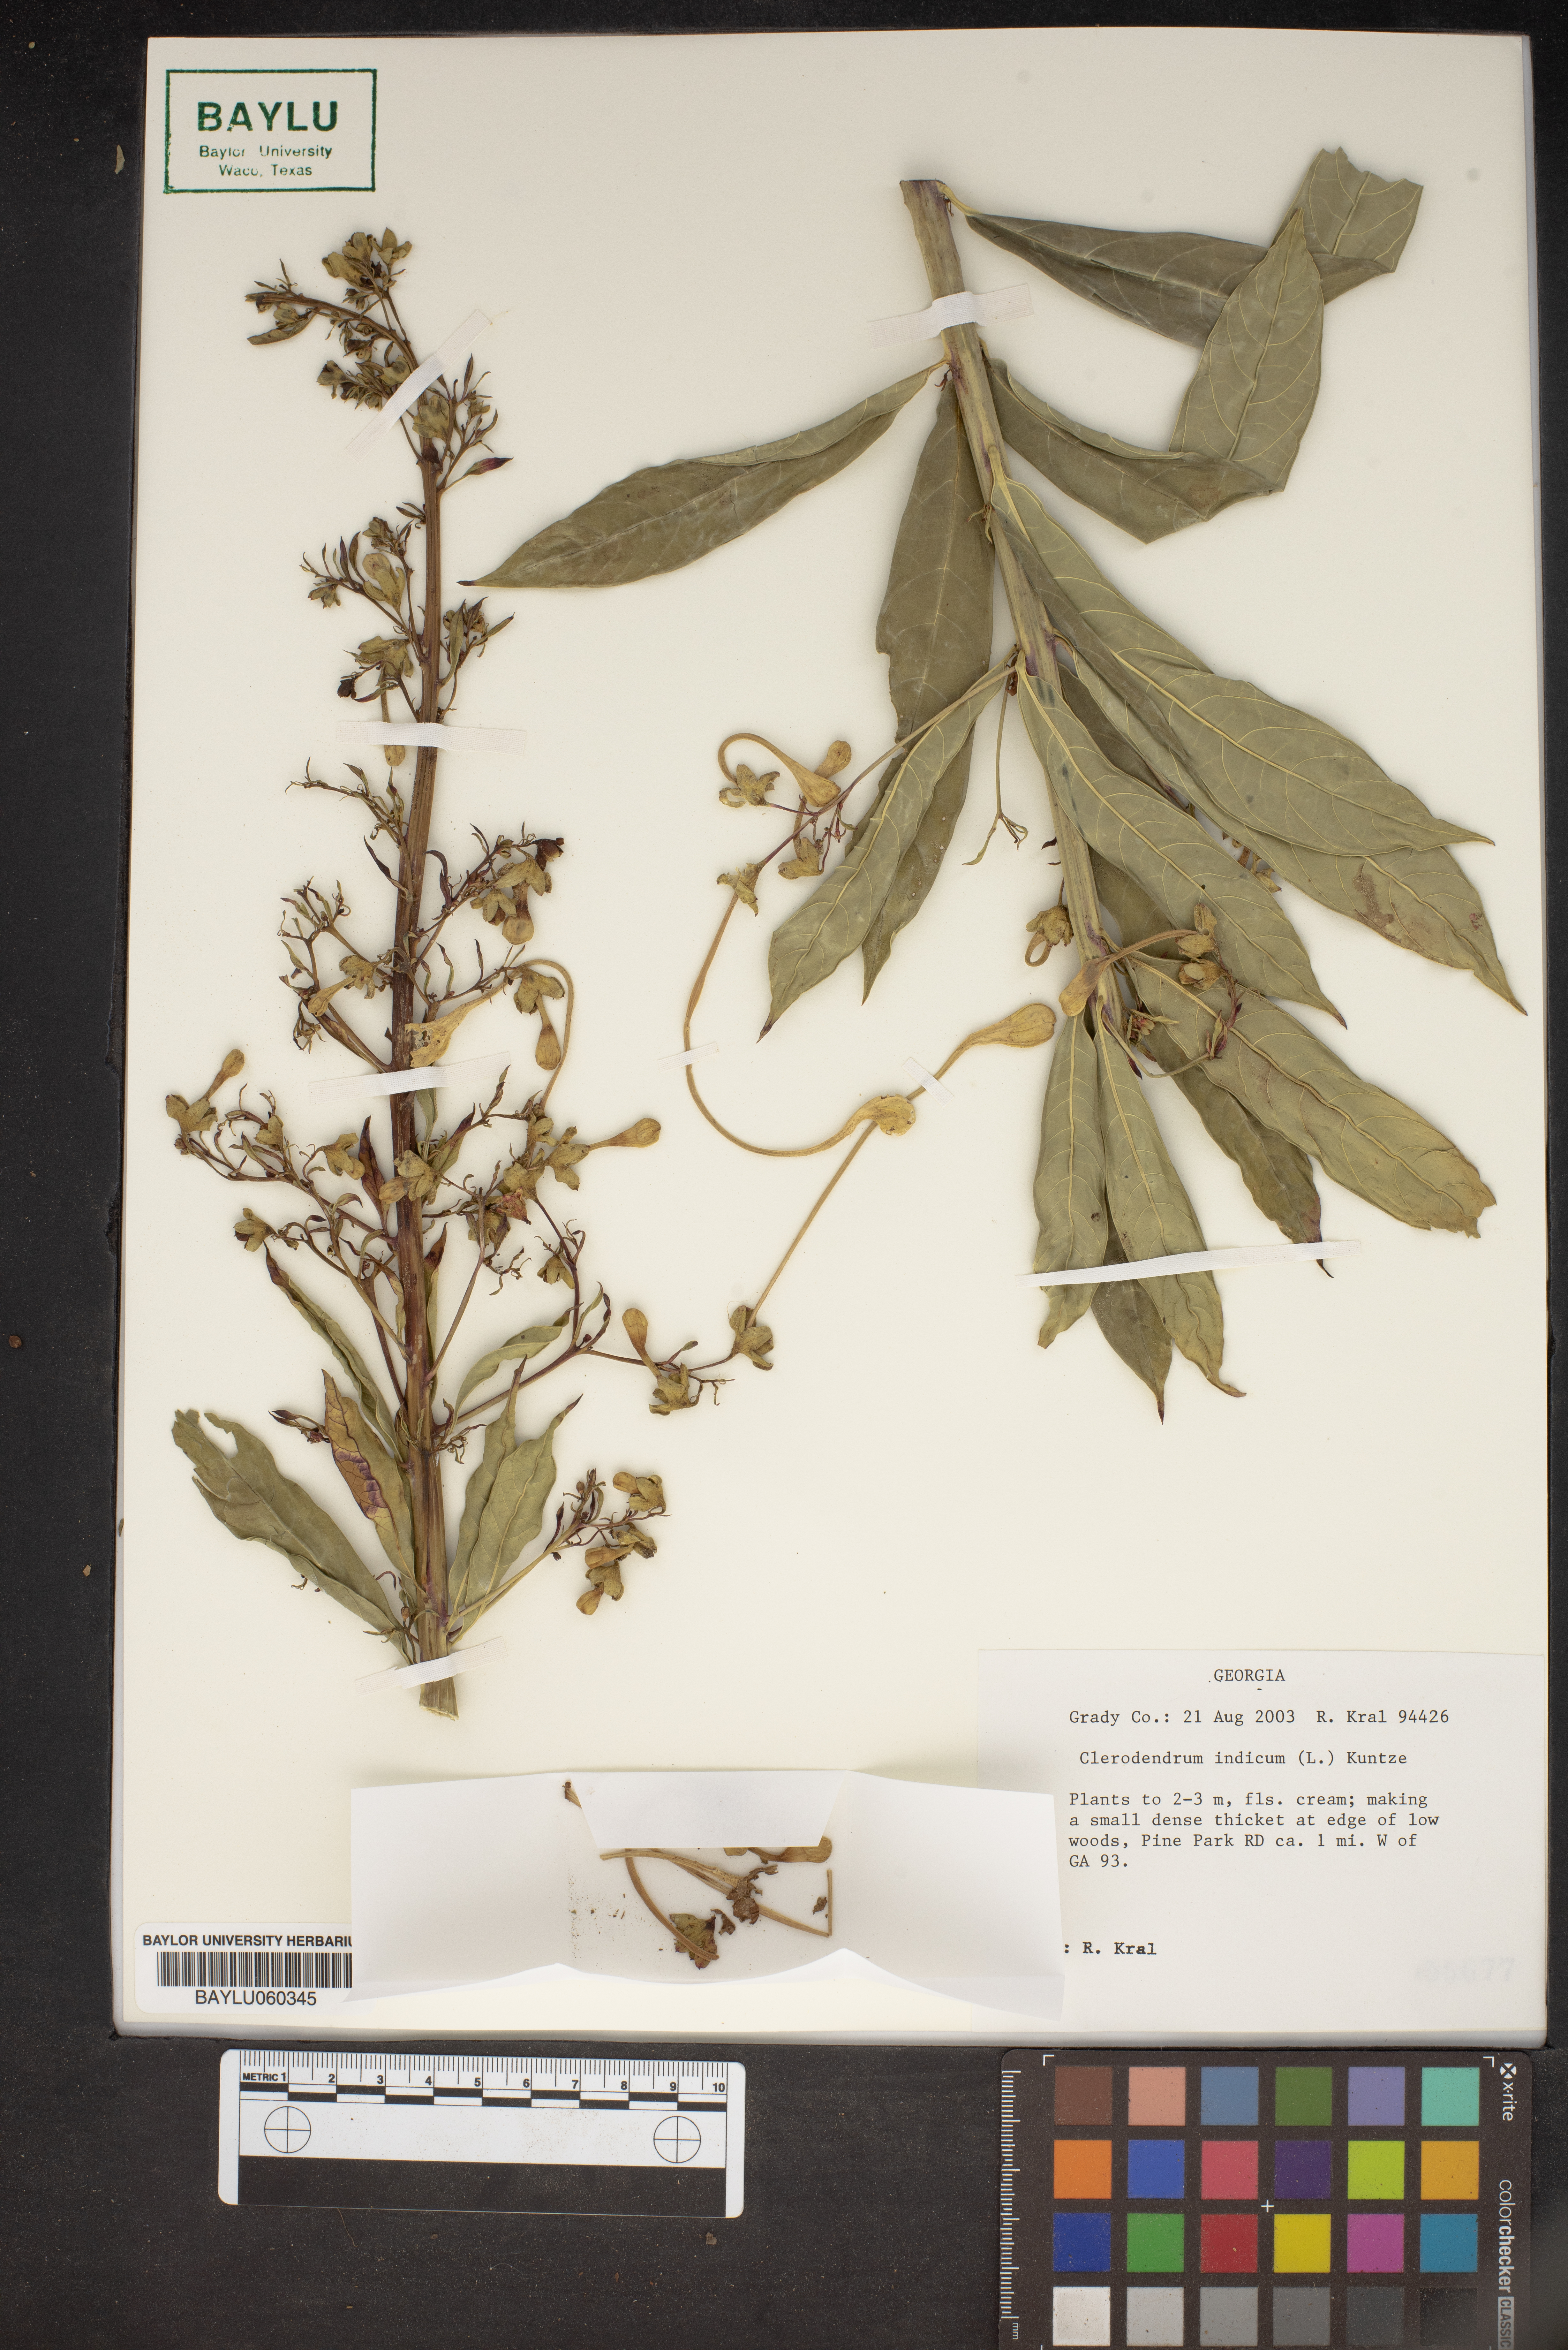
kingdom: Plantae
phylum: Tracheophyta
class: Magnoliopsida
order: Lamiales
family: Lamiaceae
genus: Clerodendrum
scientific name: Clerodendrum indicum
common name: Turk's turbin
